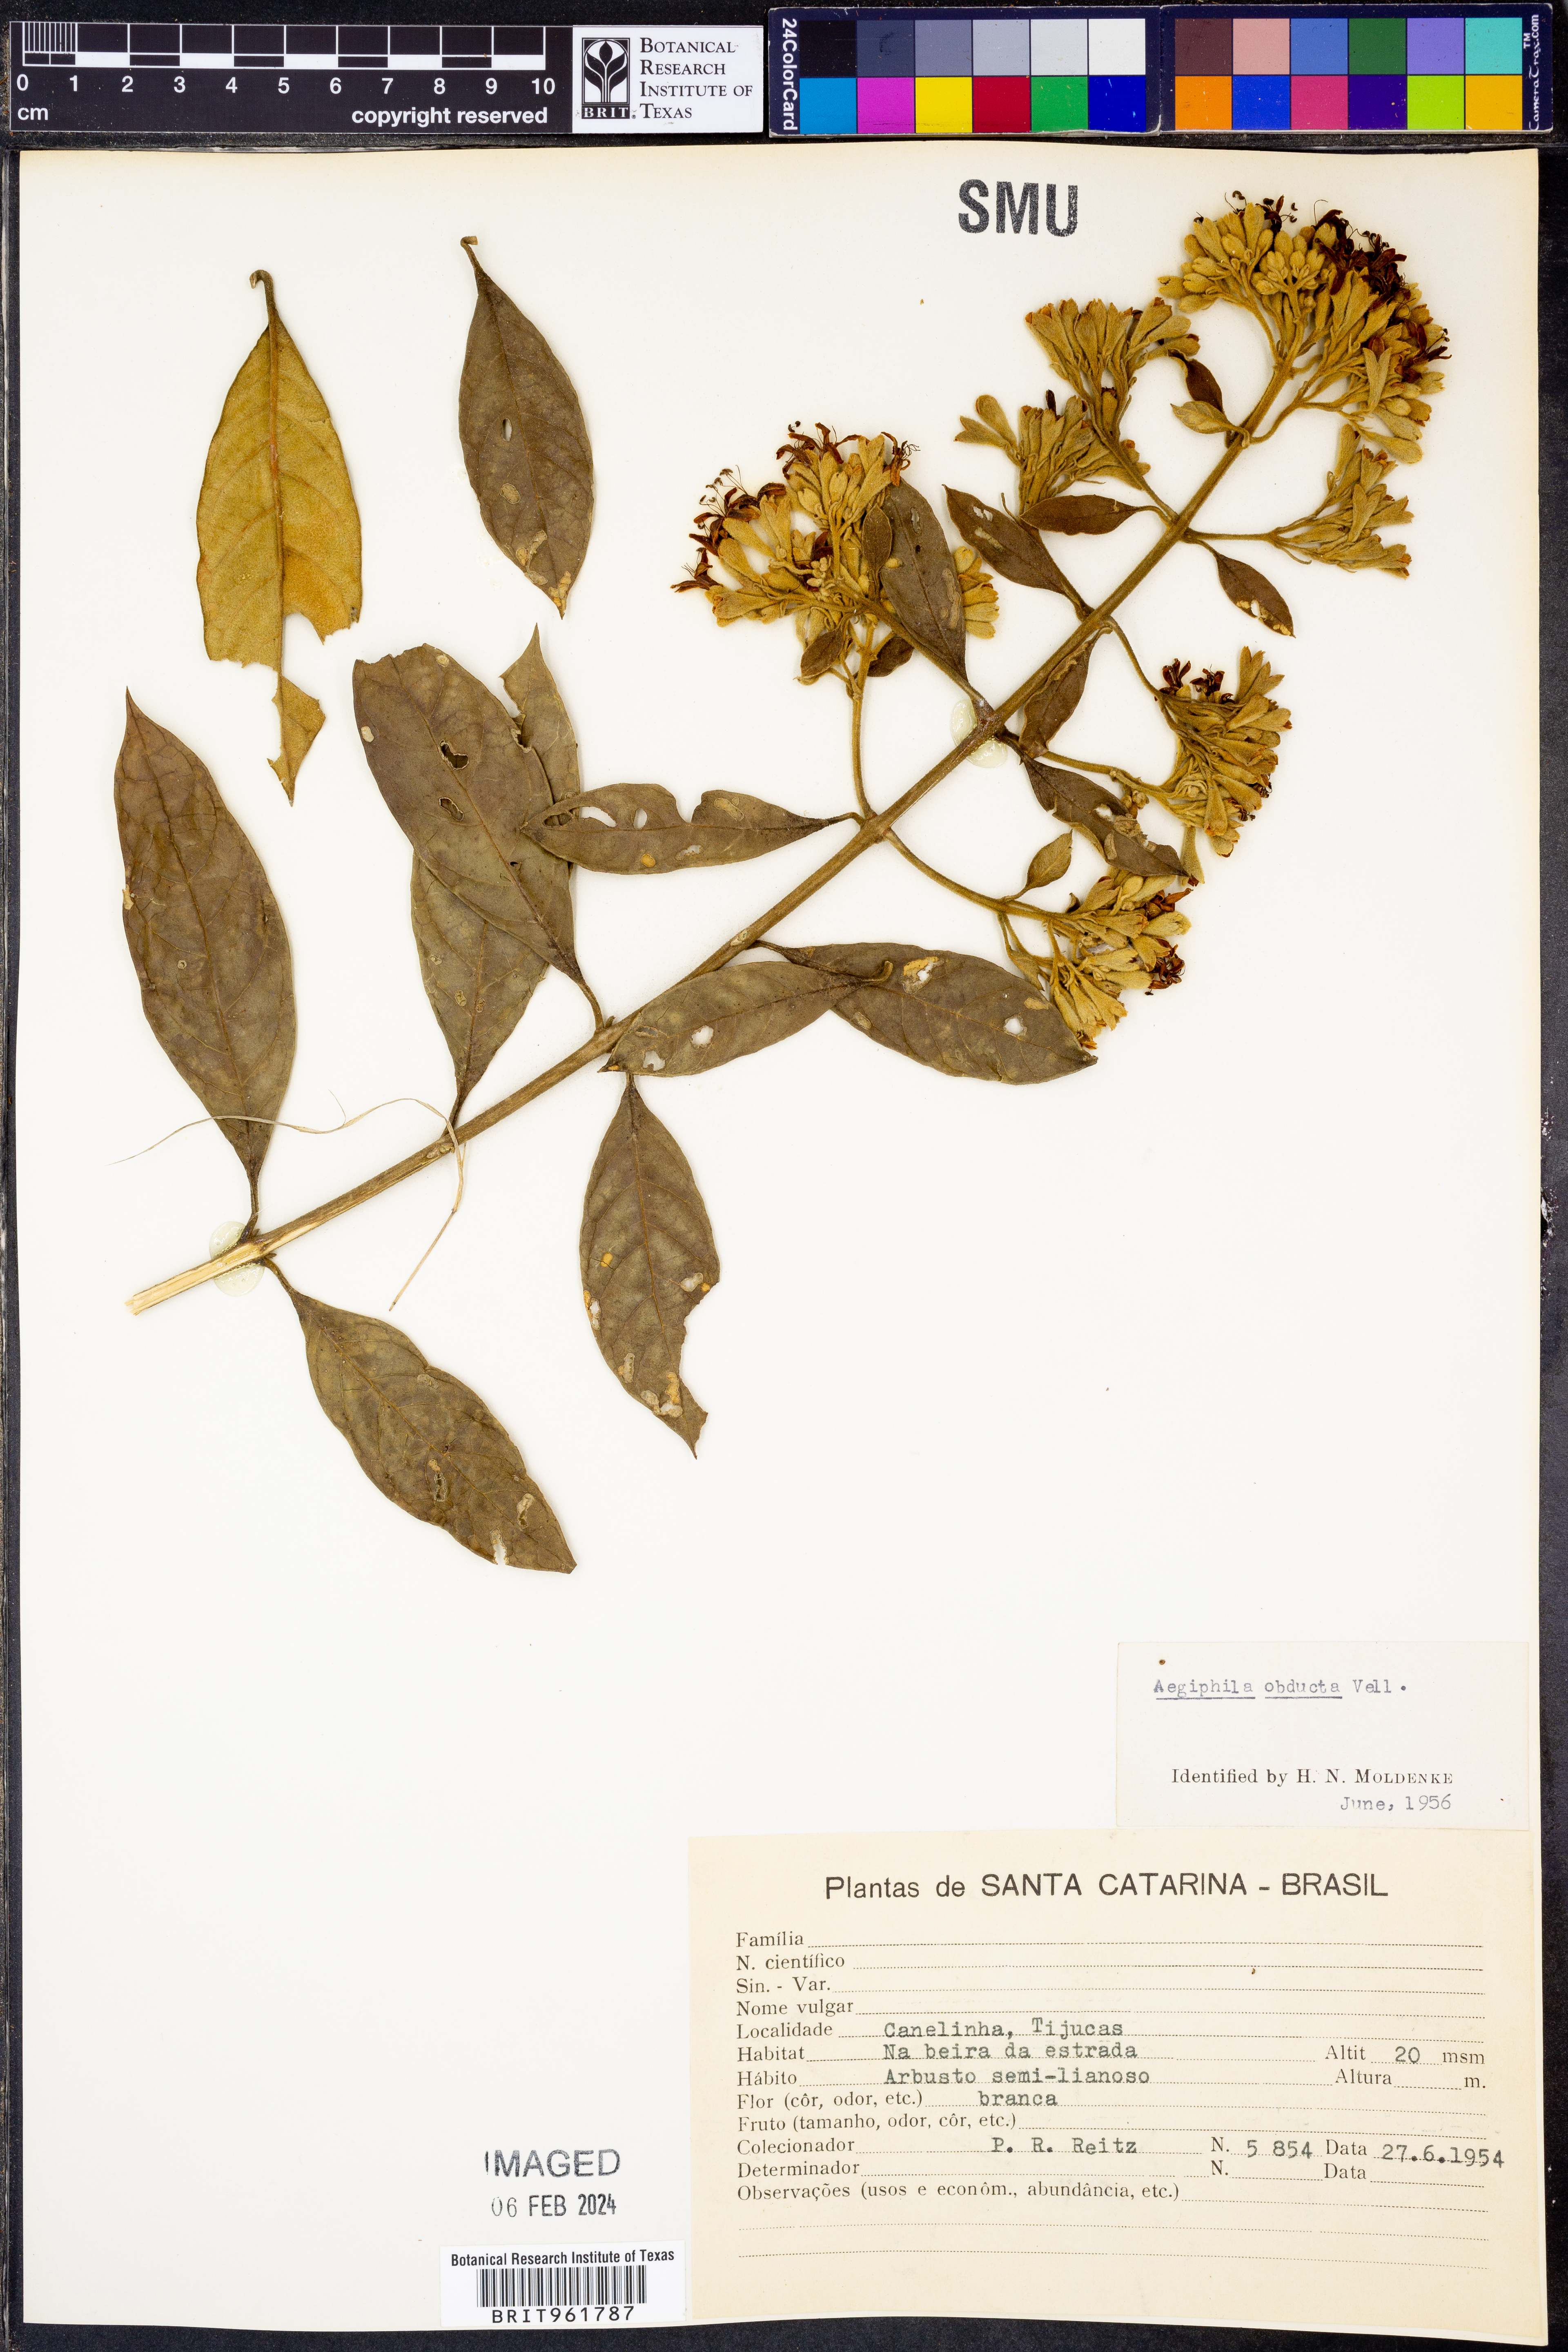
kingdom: Plantae
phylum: Tracheophyta
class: Magnoliopsida
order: Lamiales
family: Lamiaceae
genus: Aegiphila
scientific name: Aegiphila
